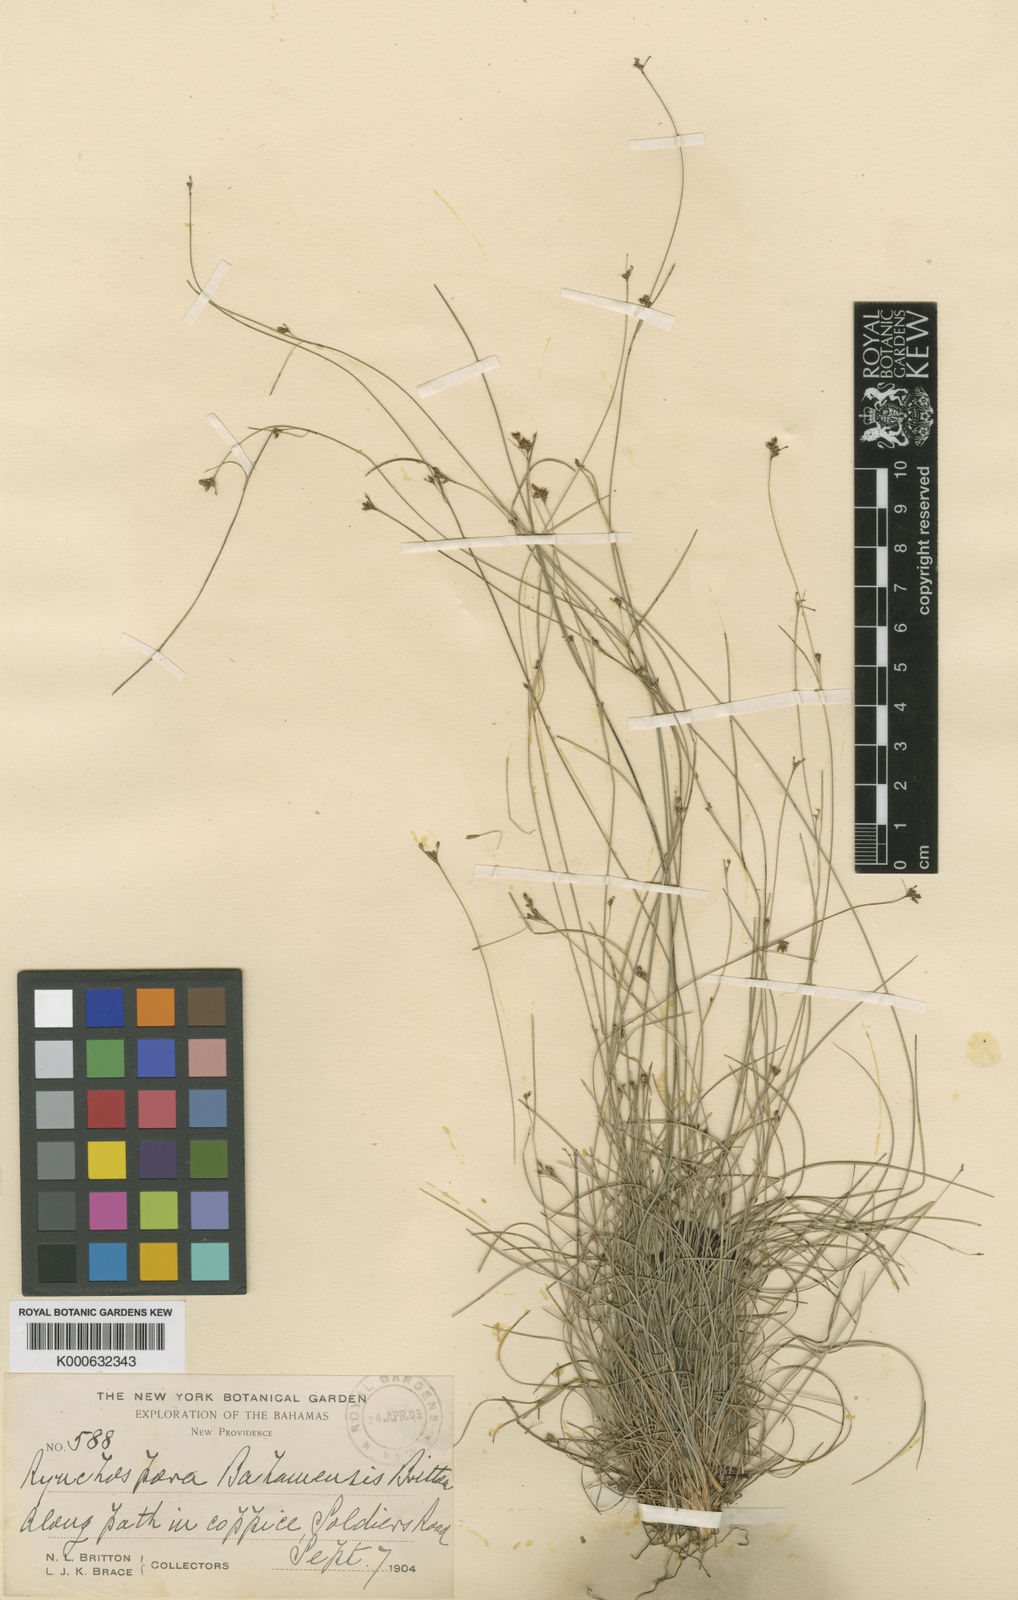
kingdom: Plantae
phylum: Tracheophyta
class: Liliopsida
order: Poales
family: Cyperaceae
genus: Rhynchospora
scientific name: Rhynchospora lindeniana
